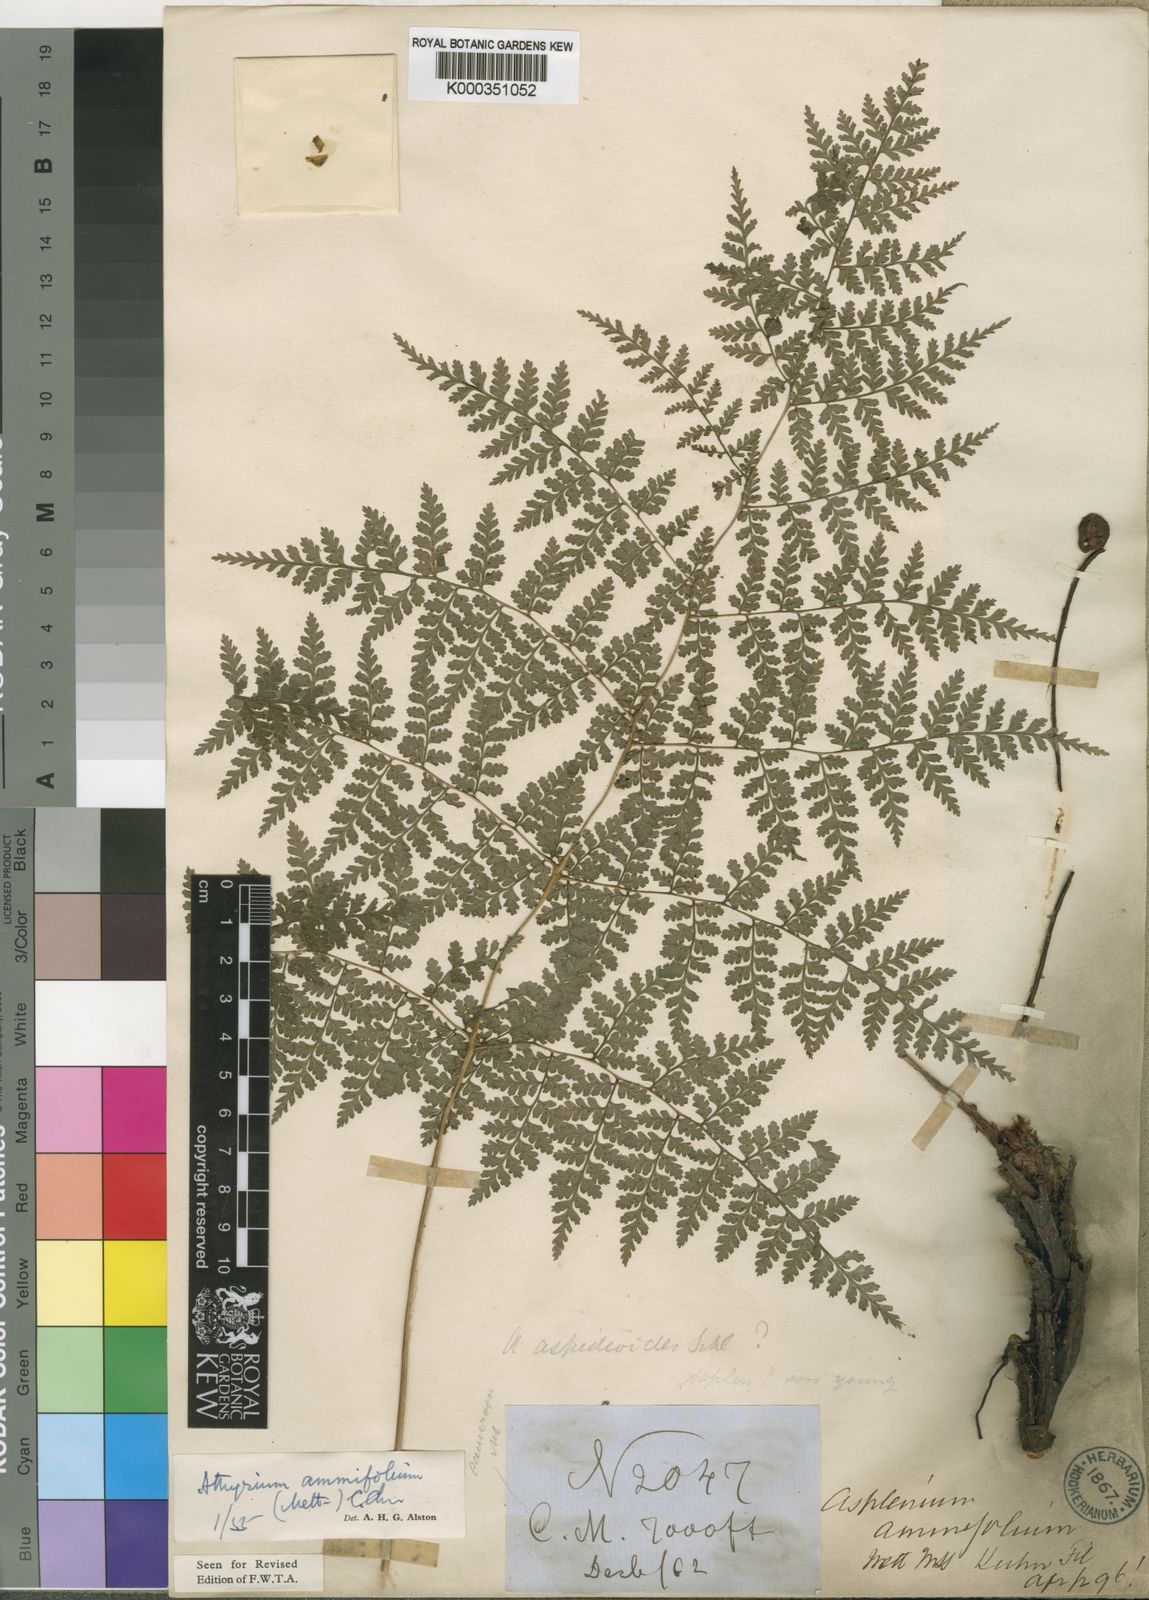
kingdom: Plantae
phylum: Tracheophyta
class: Polypodiopsida
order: Polypodiales
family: Athyriaceae
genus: Athyrium
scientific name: Athyrium ammifolium
